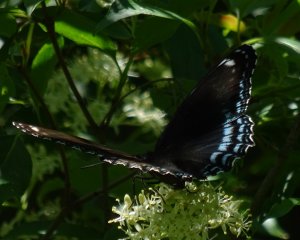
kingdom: Animalia
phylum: Arthropoda
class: Insecta
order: Lepidoptera
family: Nymphalidae
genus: Limenitis
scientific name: Limenitis astyanax
